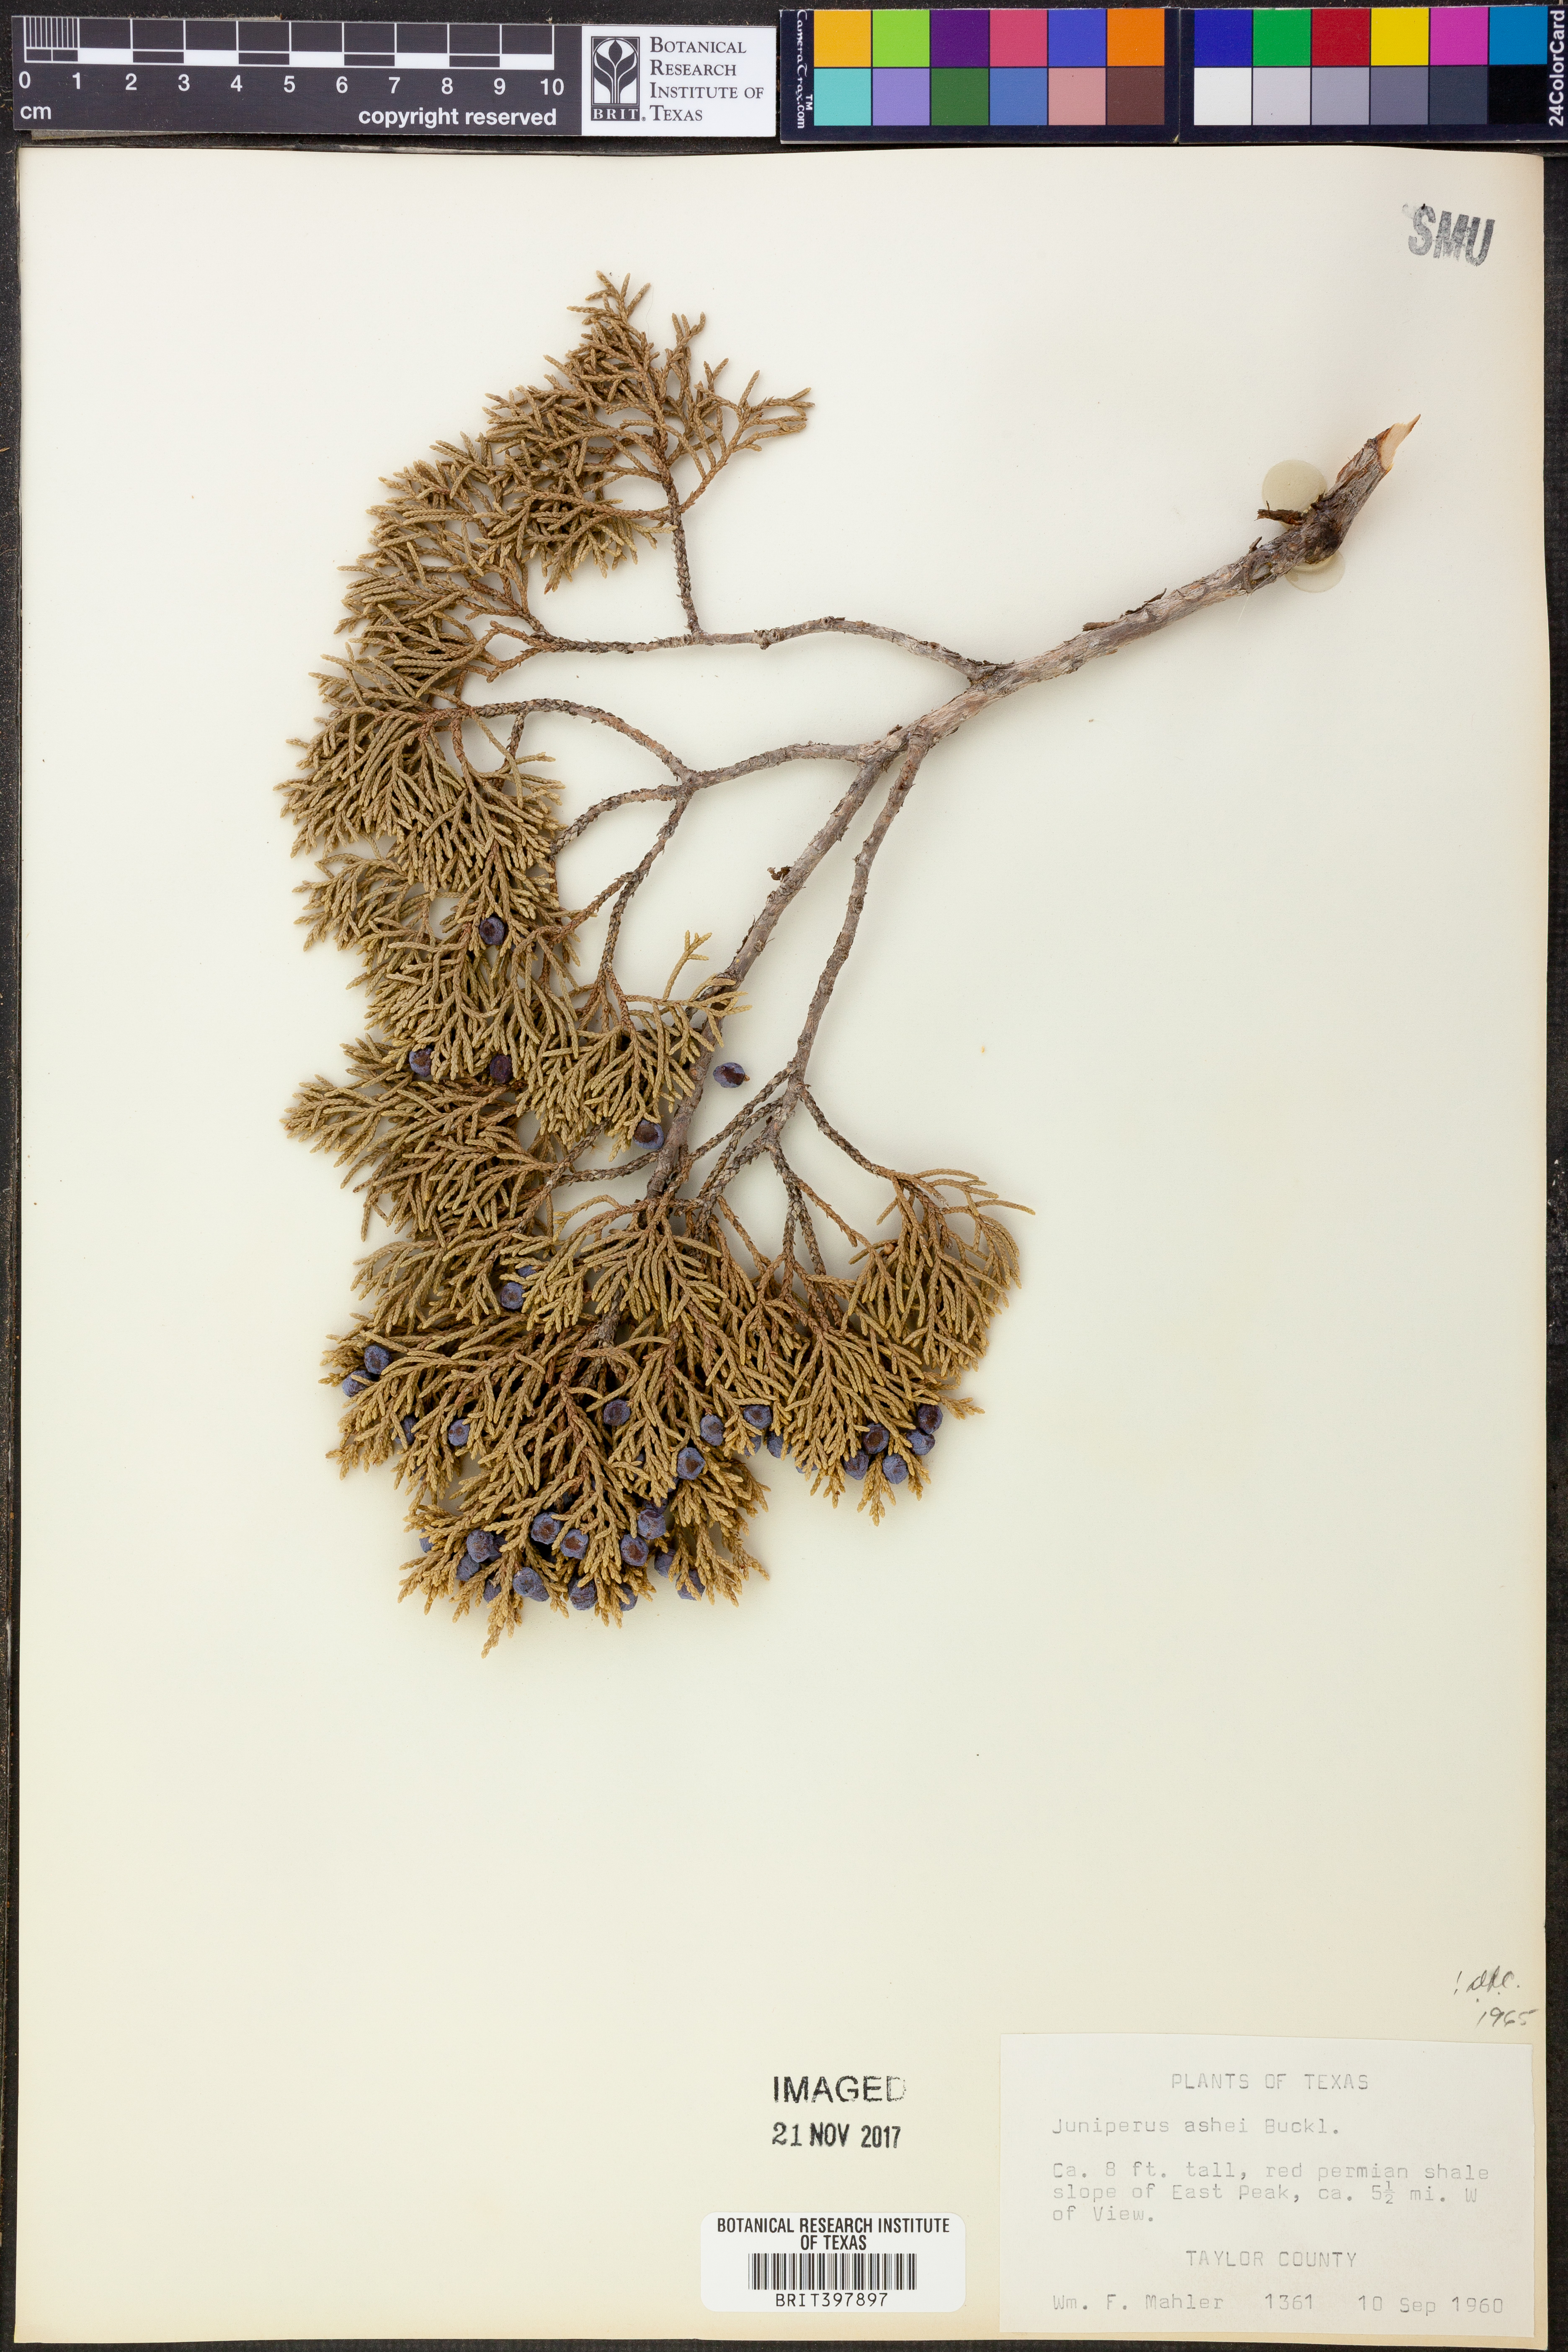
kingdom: Plantae
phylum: Tracheophyta
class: Pinopsida
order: Pinales
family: Cupressaceae
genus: Juniperus
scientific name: Juniperus ashei
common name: Mexican juniper
